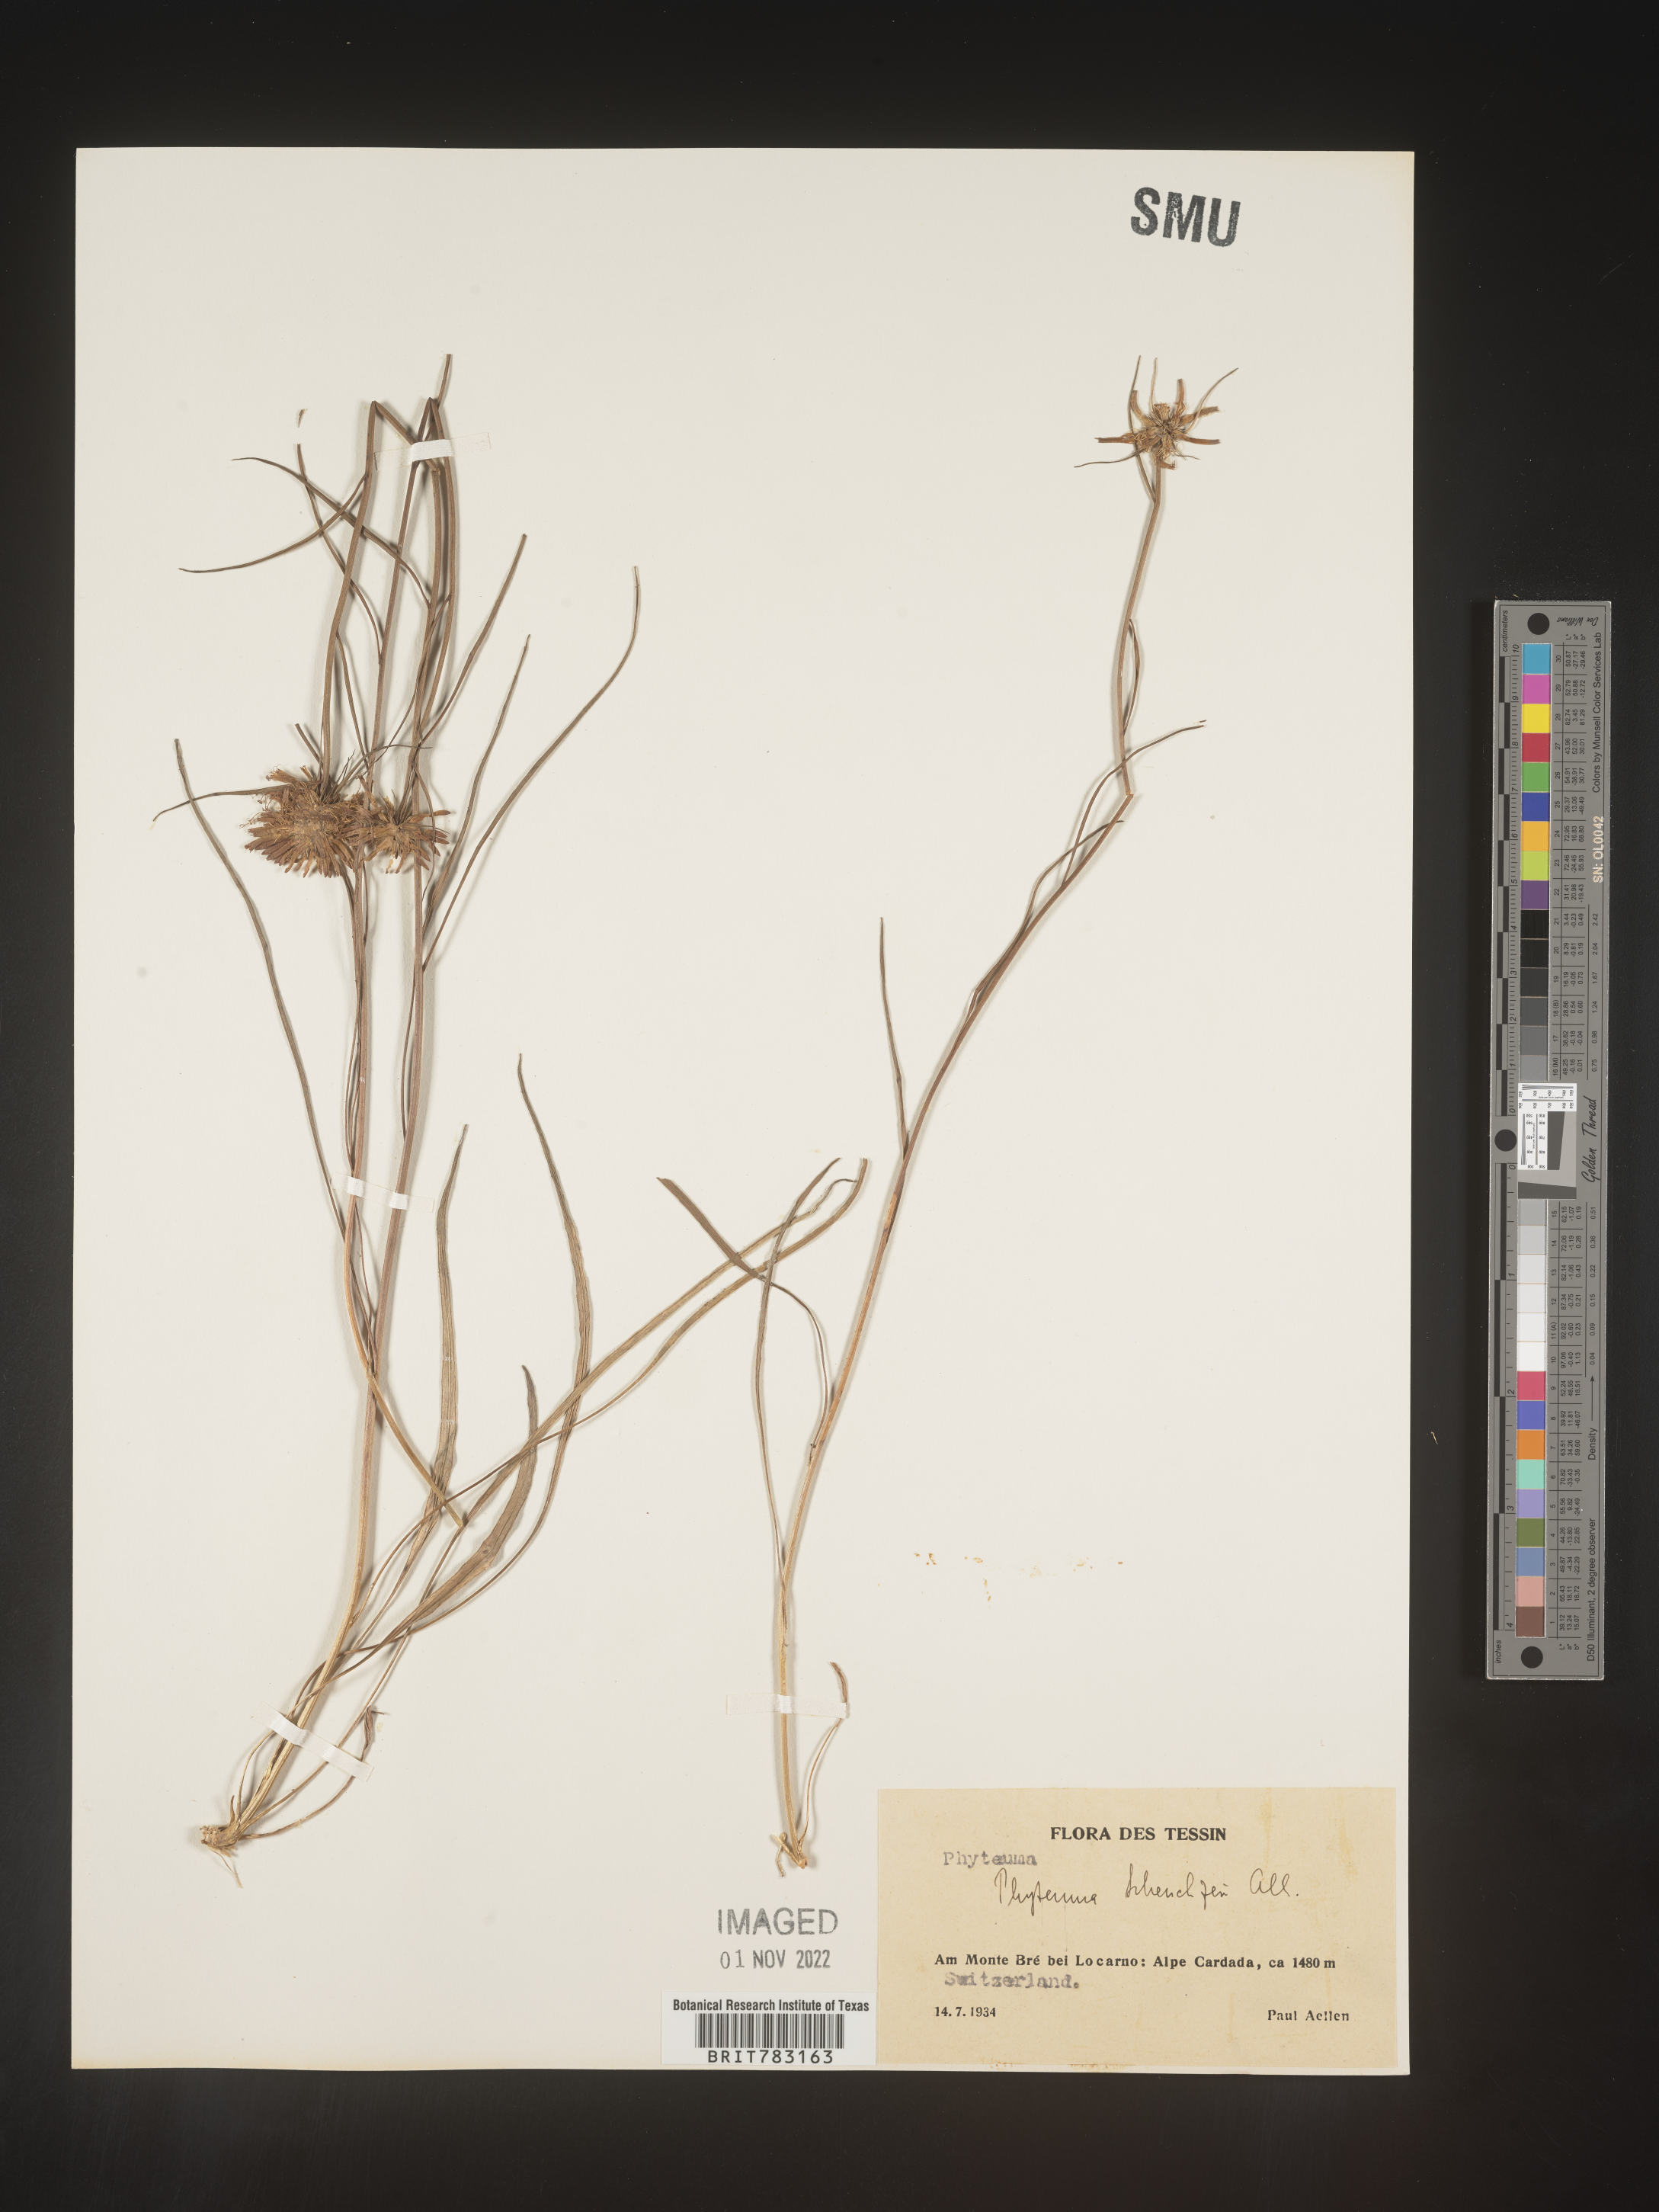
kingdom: Plantae
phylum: Tracheophyta
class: Magnoliopsida
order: Asterales
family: Campanulaceae
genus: Phyteuma
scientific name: Phyteuma
